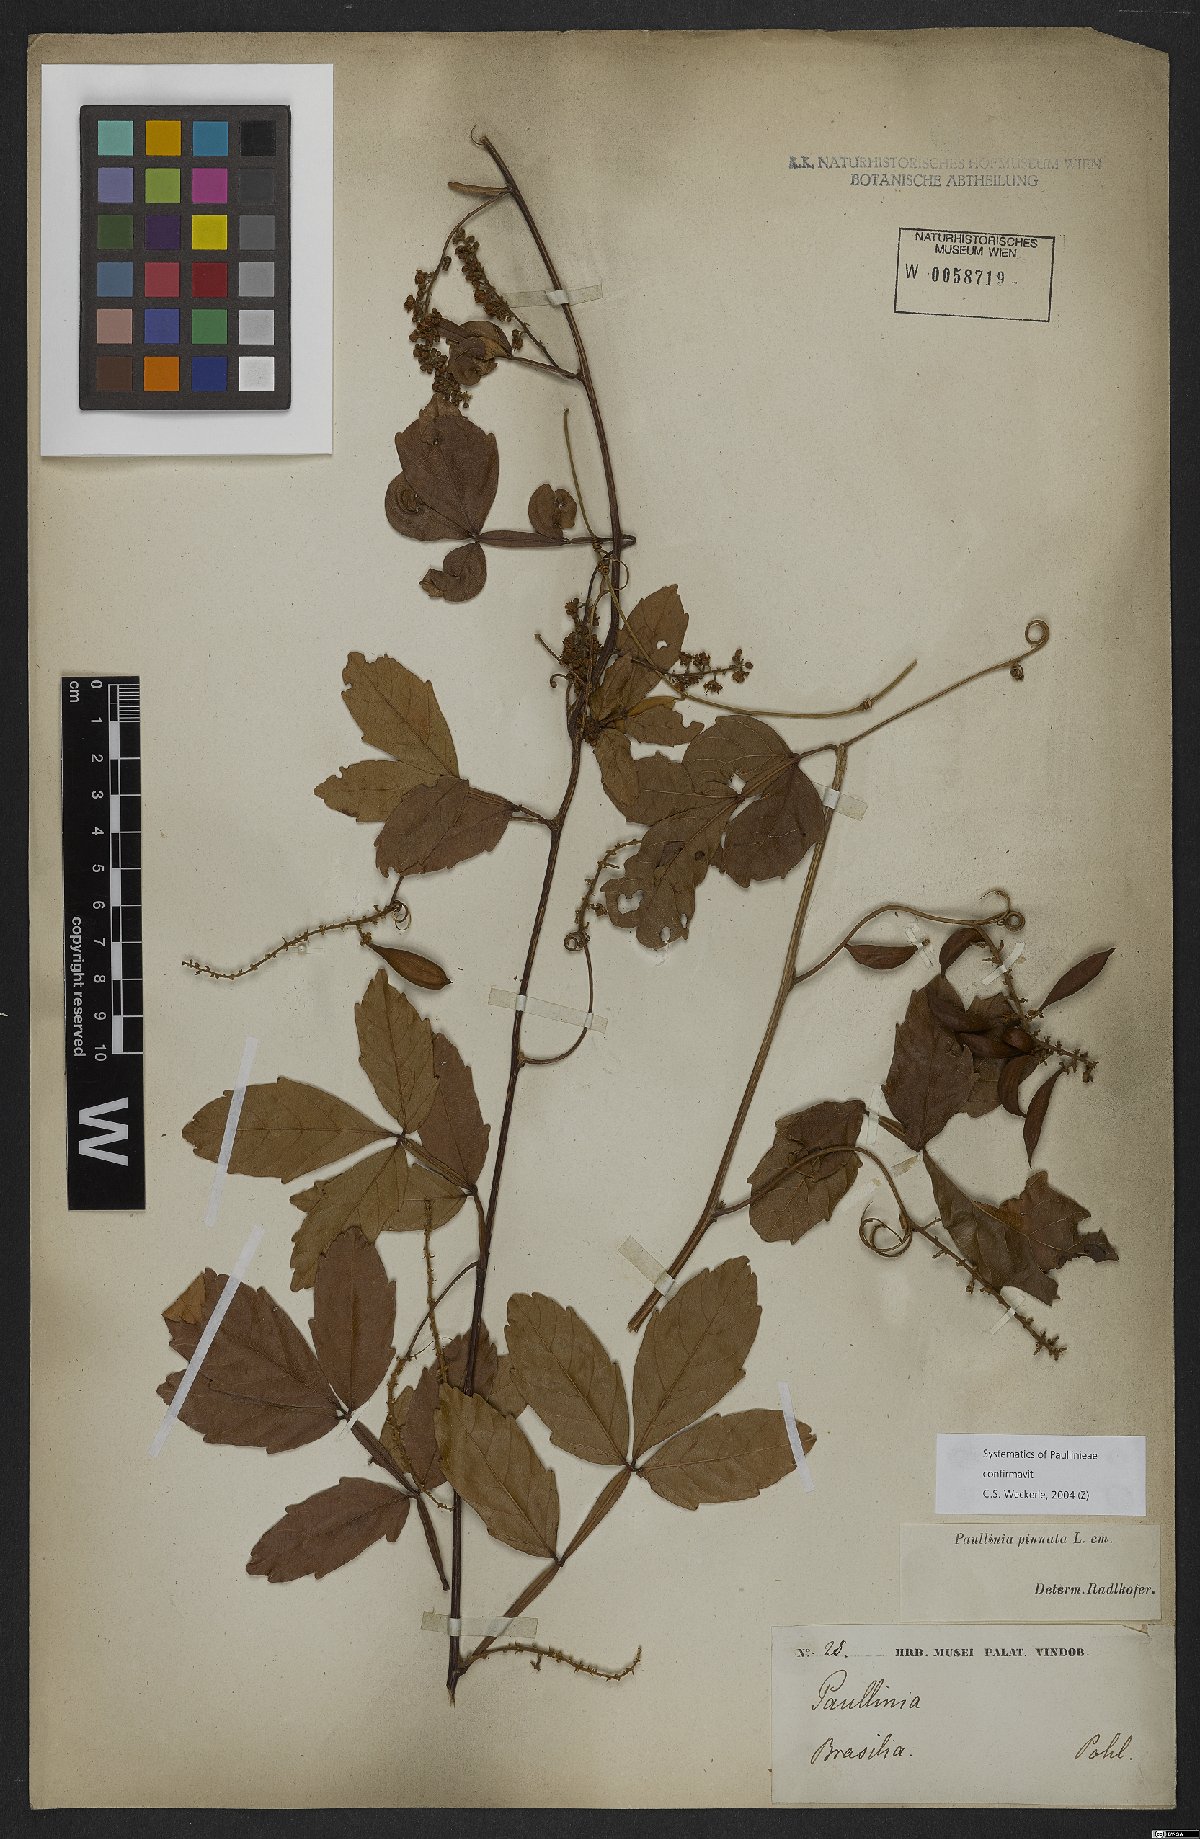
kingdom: Plantae
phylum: Tracheophyta
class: Magnoliopsida
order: Sapindales
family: Sapindaceae
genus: Paullinia
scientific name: Paullinia pinnata
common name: Barbasco
